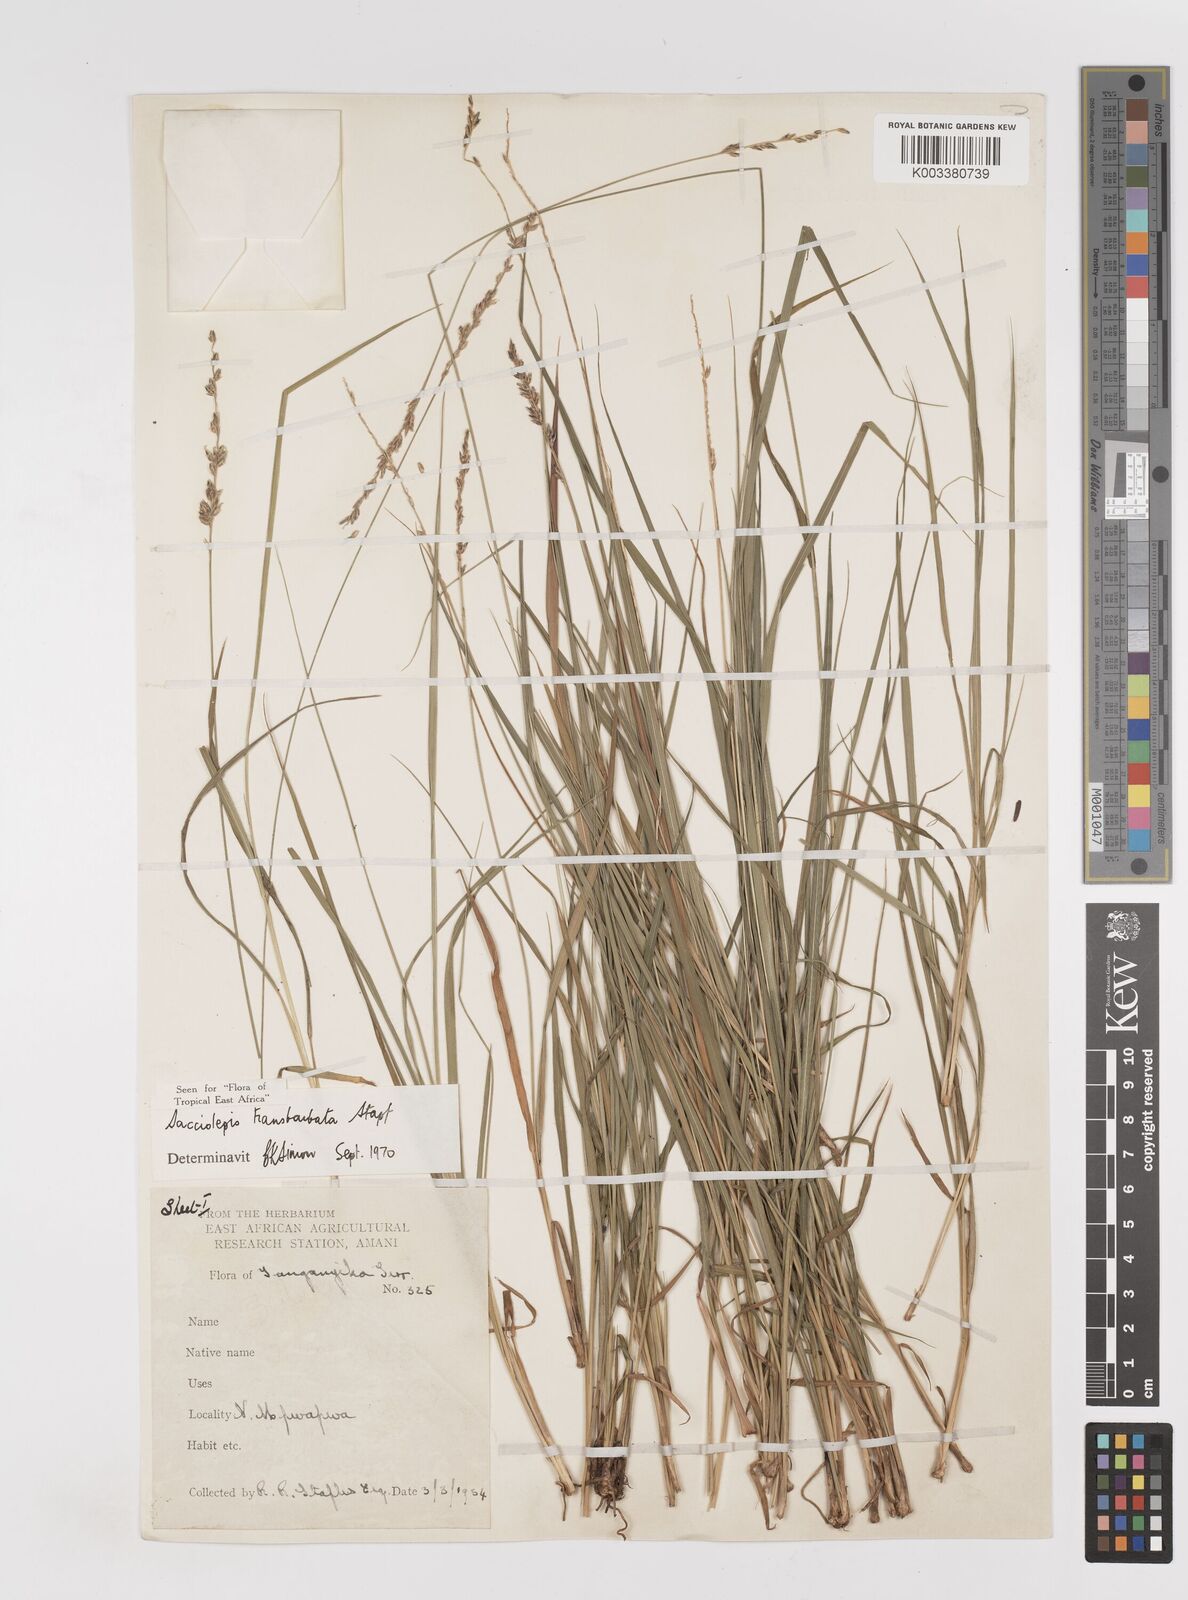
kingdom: Plantae
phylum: Tracheophyta
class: Liliopsida
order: Poales
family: Poaceae
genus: Sacciolepis
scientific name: Sacciolepis transbarbata
